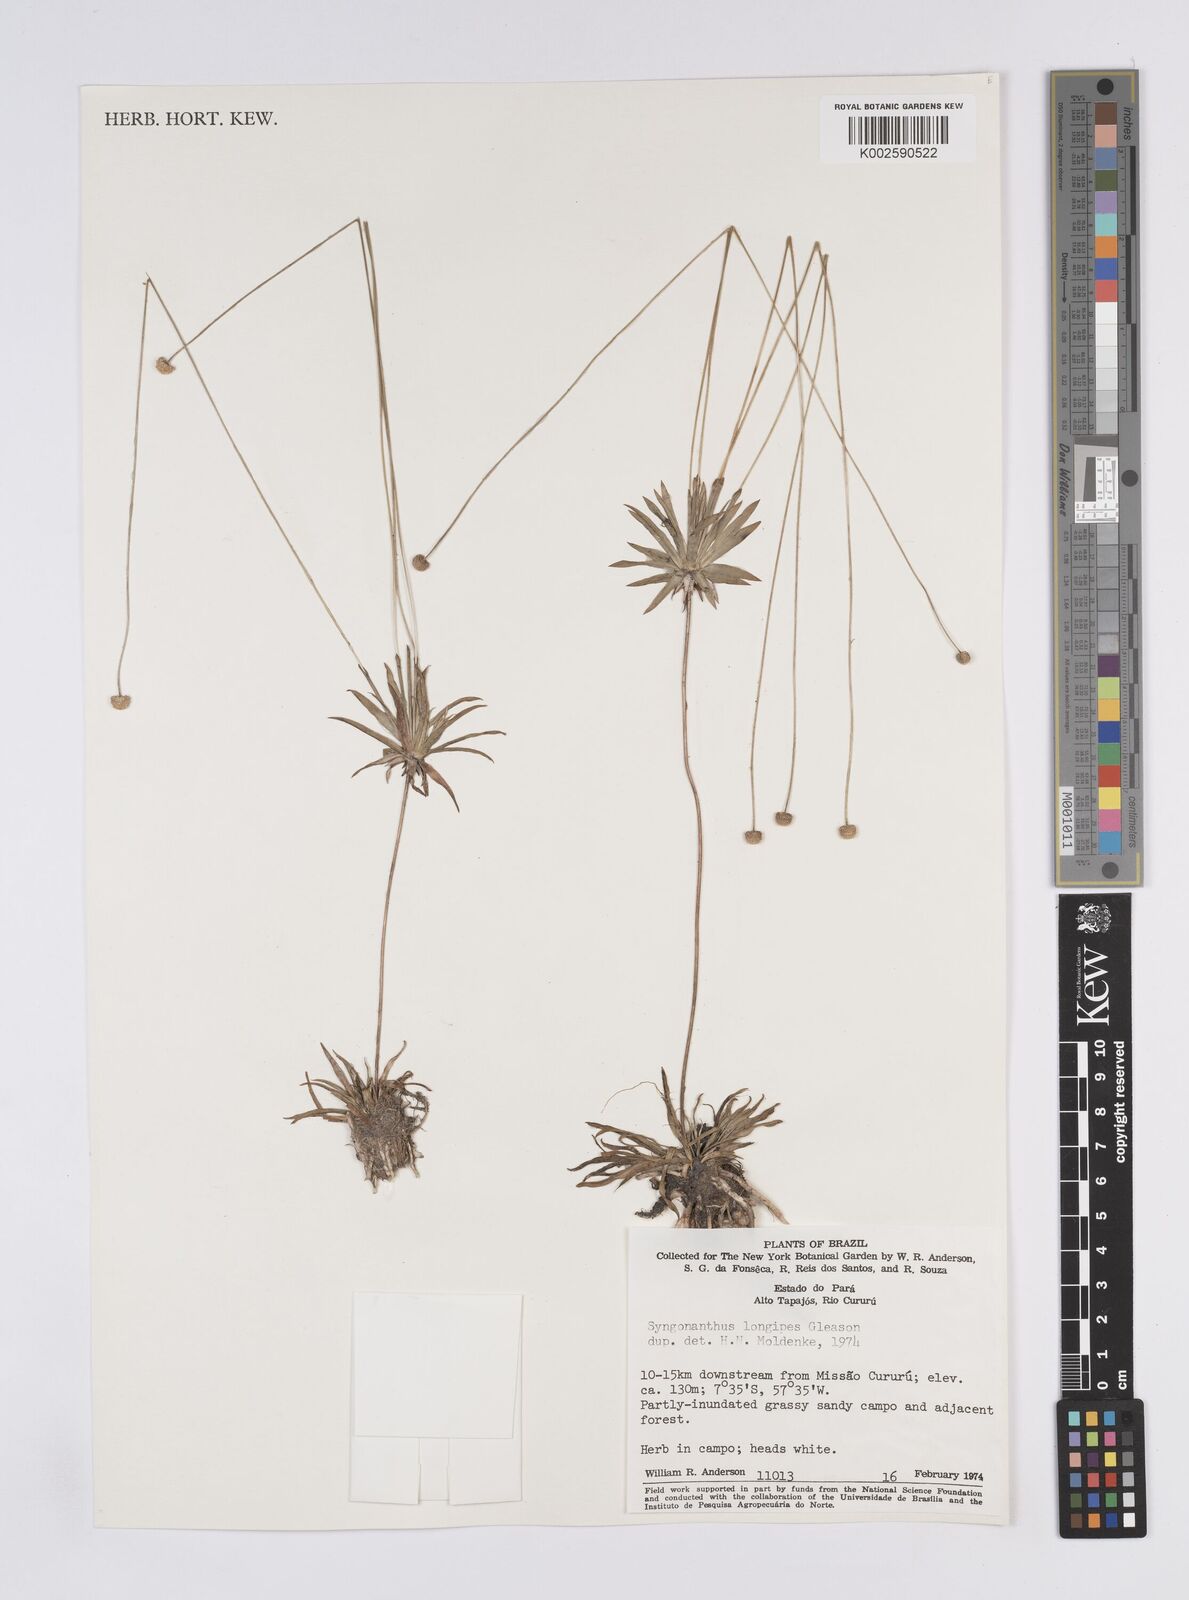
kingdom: Plantae
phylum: Tracheophyta
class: Liliopsida
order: Poales
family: Eriocaulaceae
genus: Syngonanthus
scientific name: Syngonanthus longipes
